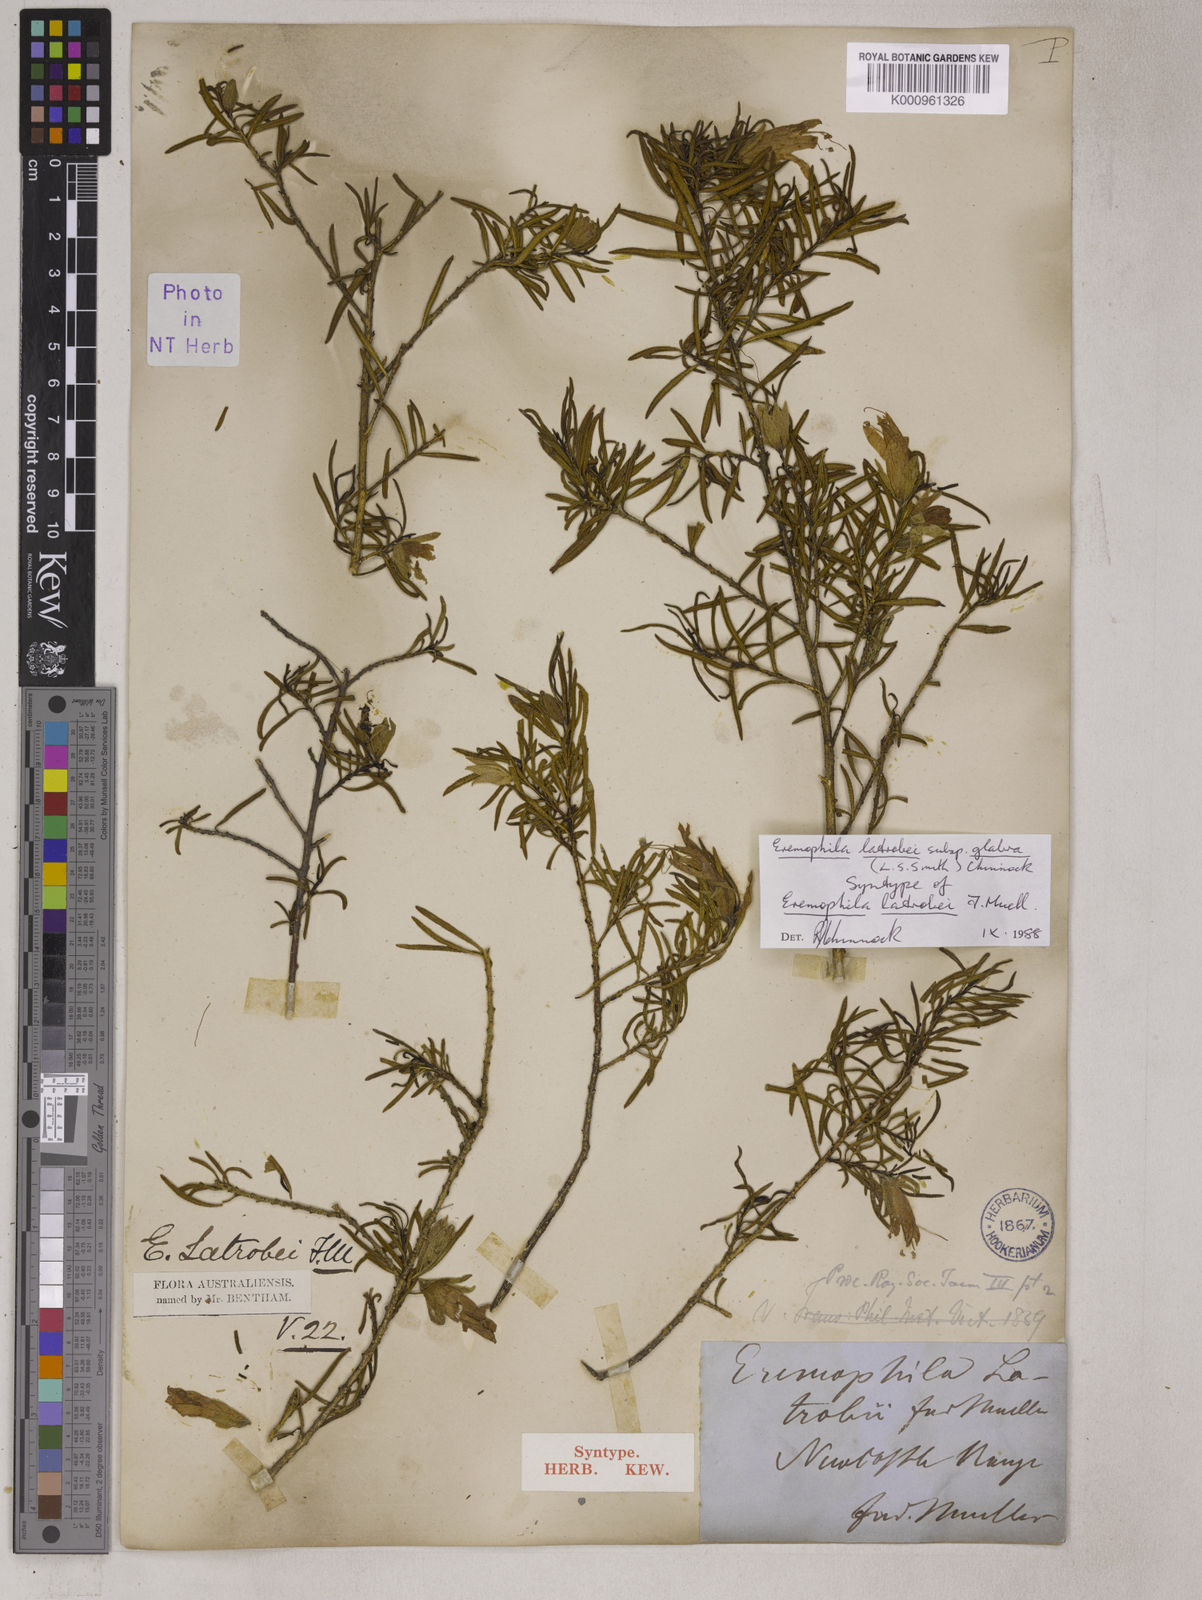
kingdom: Plantae
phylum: Tracheophyta
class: Magnoliopsida
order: Lamiales
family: Scrophulariaceae
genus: Eremophila
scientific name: Eremophila latrobei
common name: Crimson turkeybush
